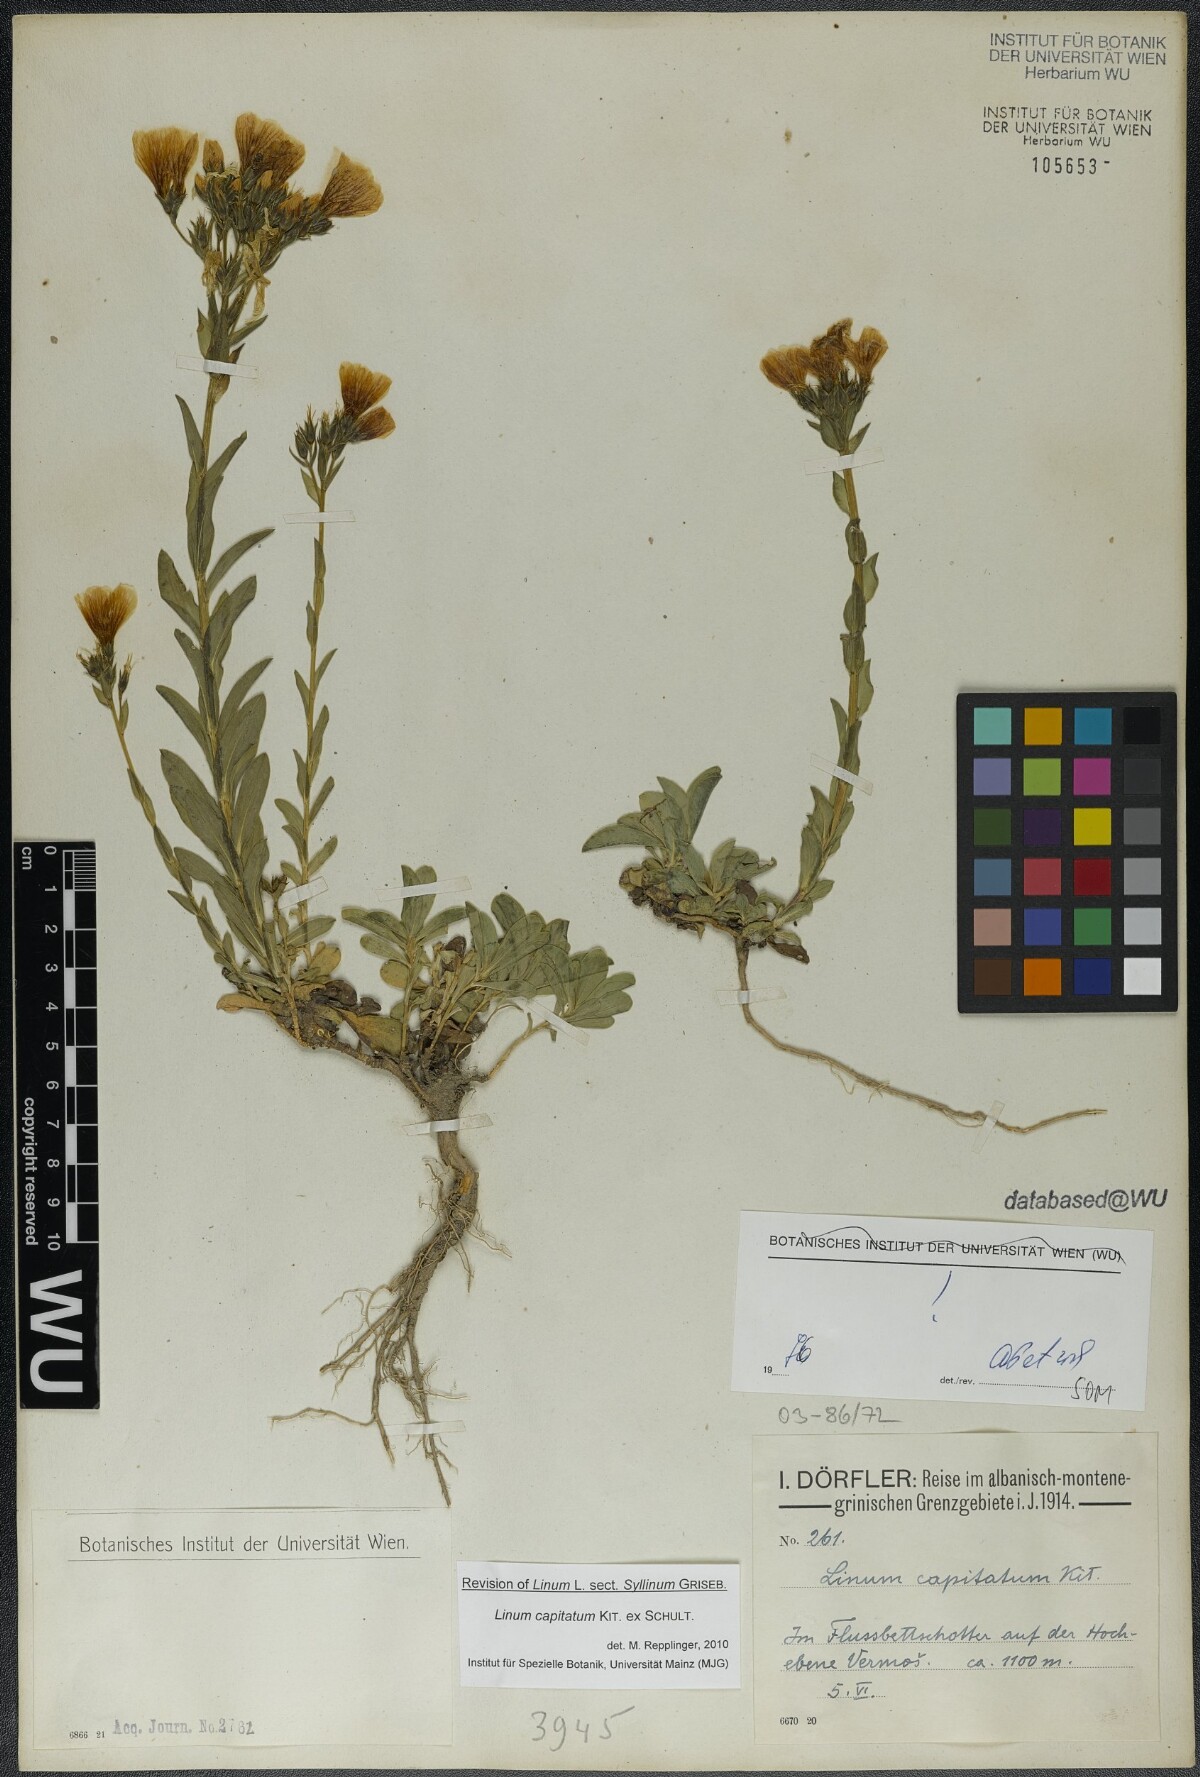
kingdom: Plantae
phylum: Tracheophyta
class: Magnoliopsida
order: Malpighiales
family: Linaceae
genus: Linum
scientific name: Linum capitatum
